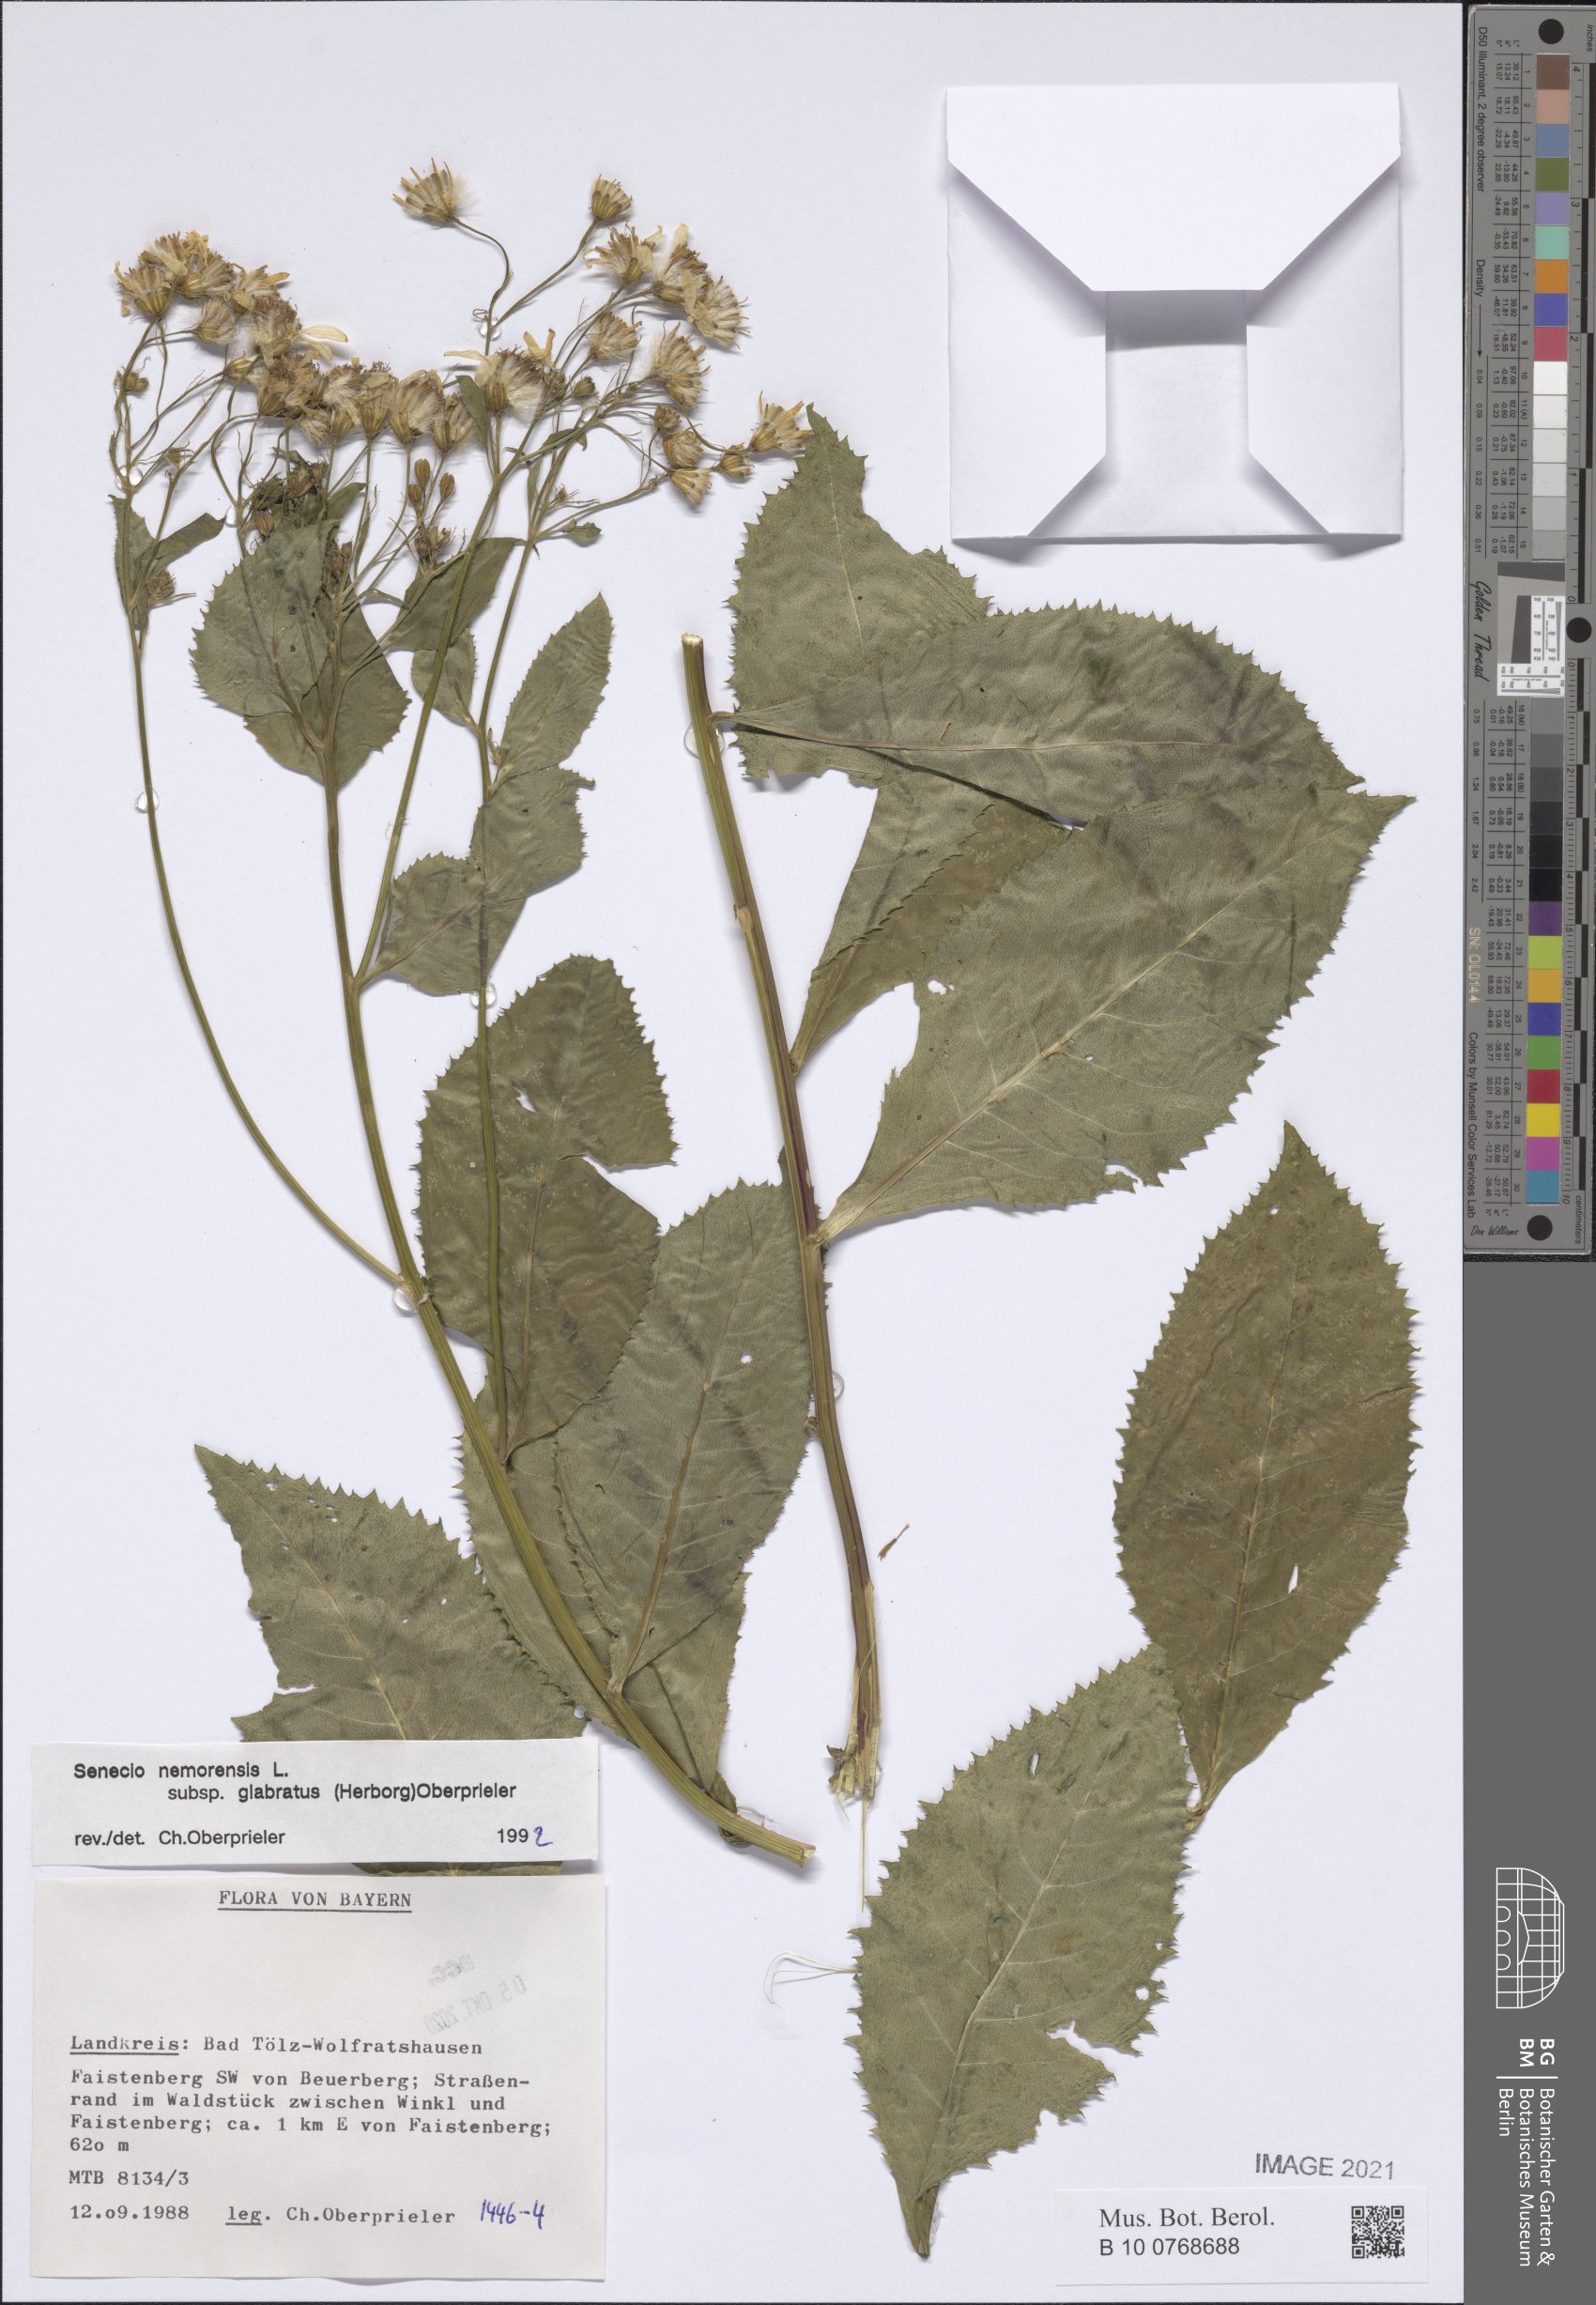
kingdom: Plantae
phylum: Tracheophyta
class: Magnoliopsida
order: Asterales
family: Asteraceae
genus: Senecio
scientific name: Senecio germanicus
